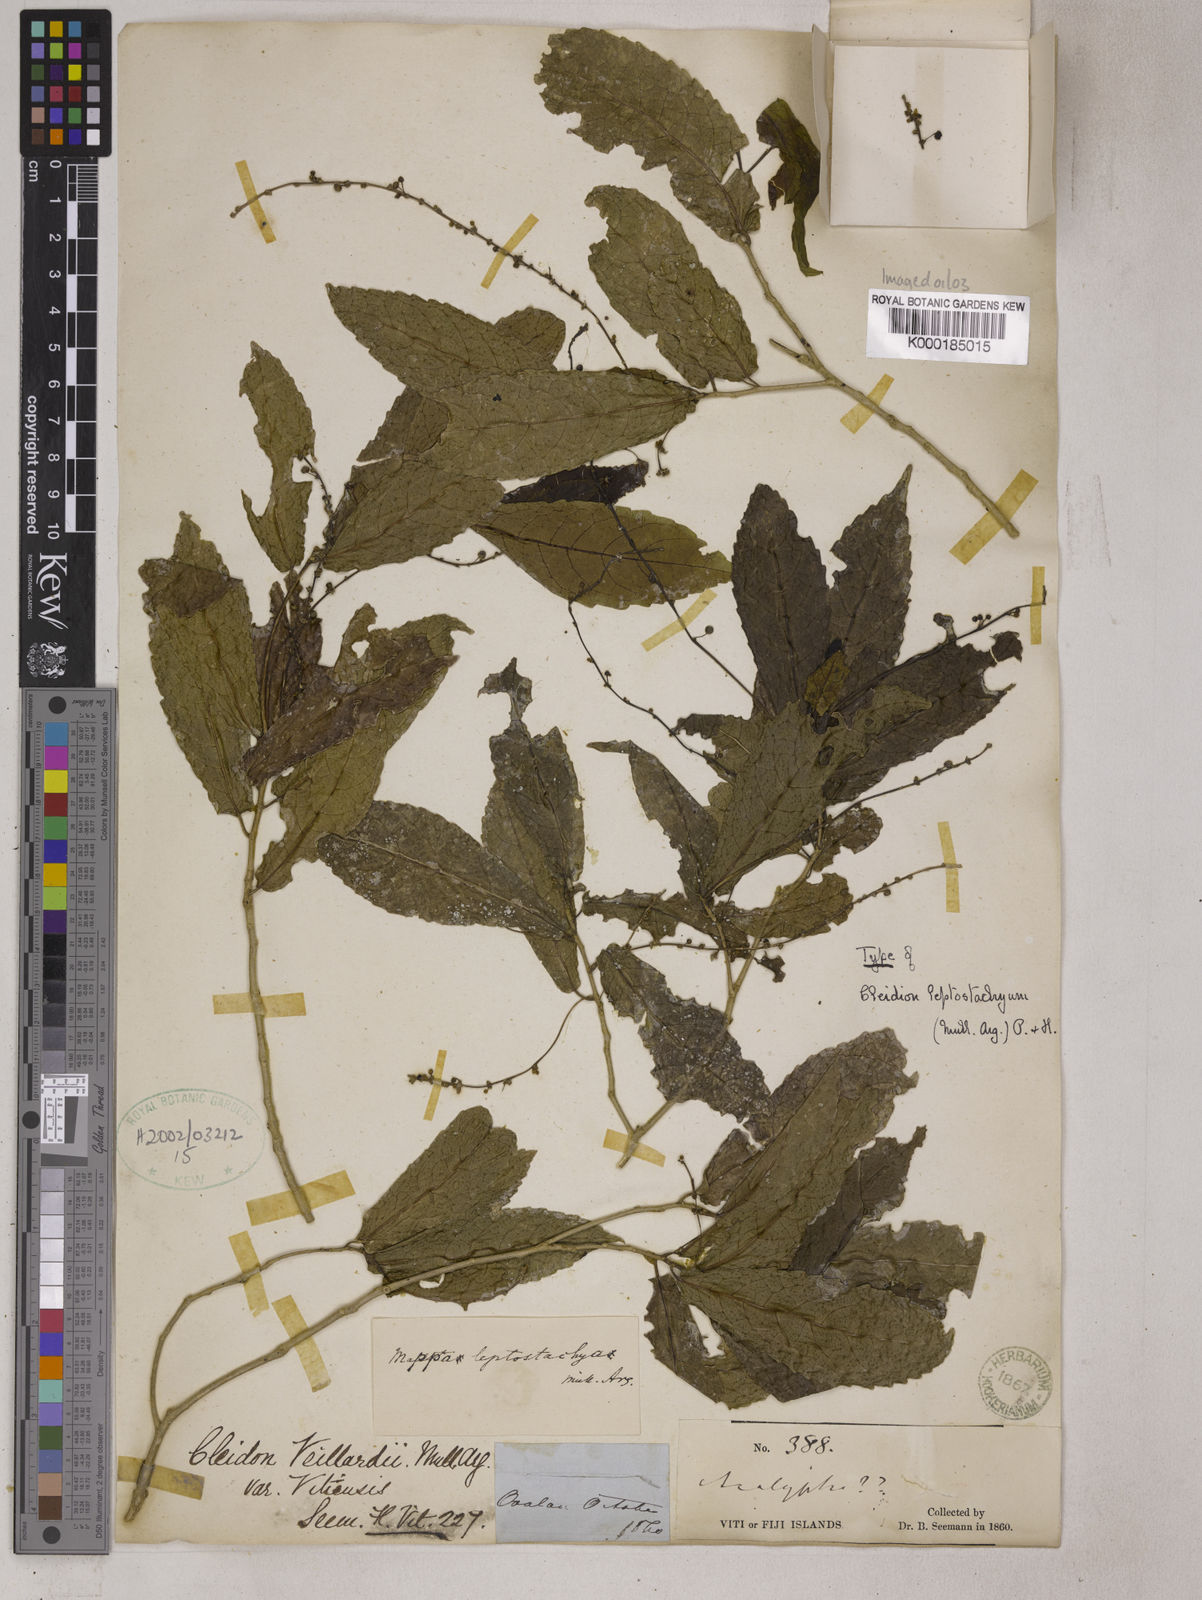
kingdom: Plantae
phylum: Tracheophyta
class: Magnoliopsida
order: Malpighiales
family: Euphorbiaceae
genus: Cleidion
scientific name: Cleidion leptostachyum
